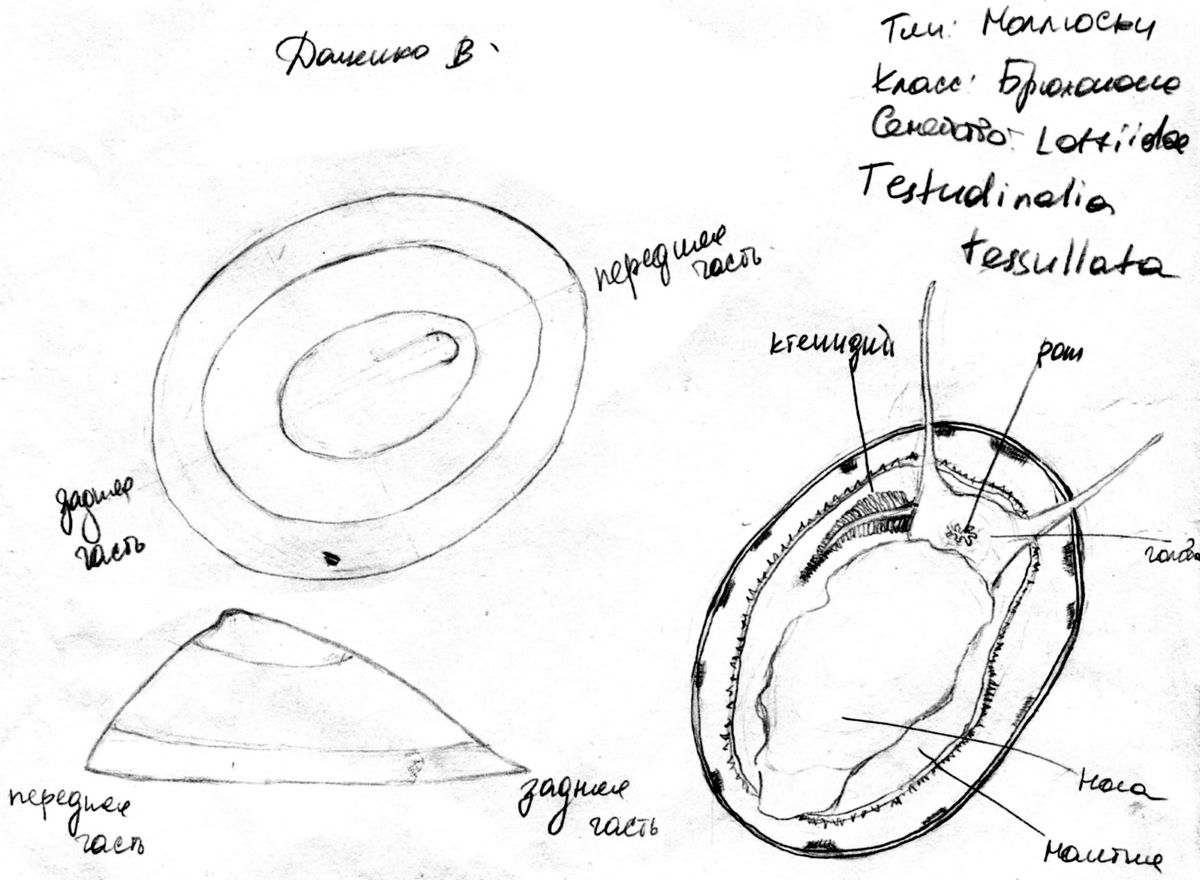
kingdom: Animalia
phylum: Mollusca
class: Gastropoda
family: Lottiidae
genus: Testudinalia
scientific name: Testudinalia testudinalis
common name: Common tortoiseshell limpet
